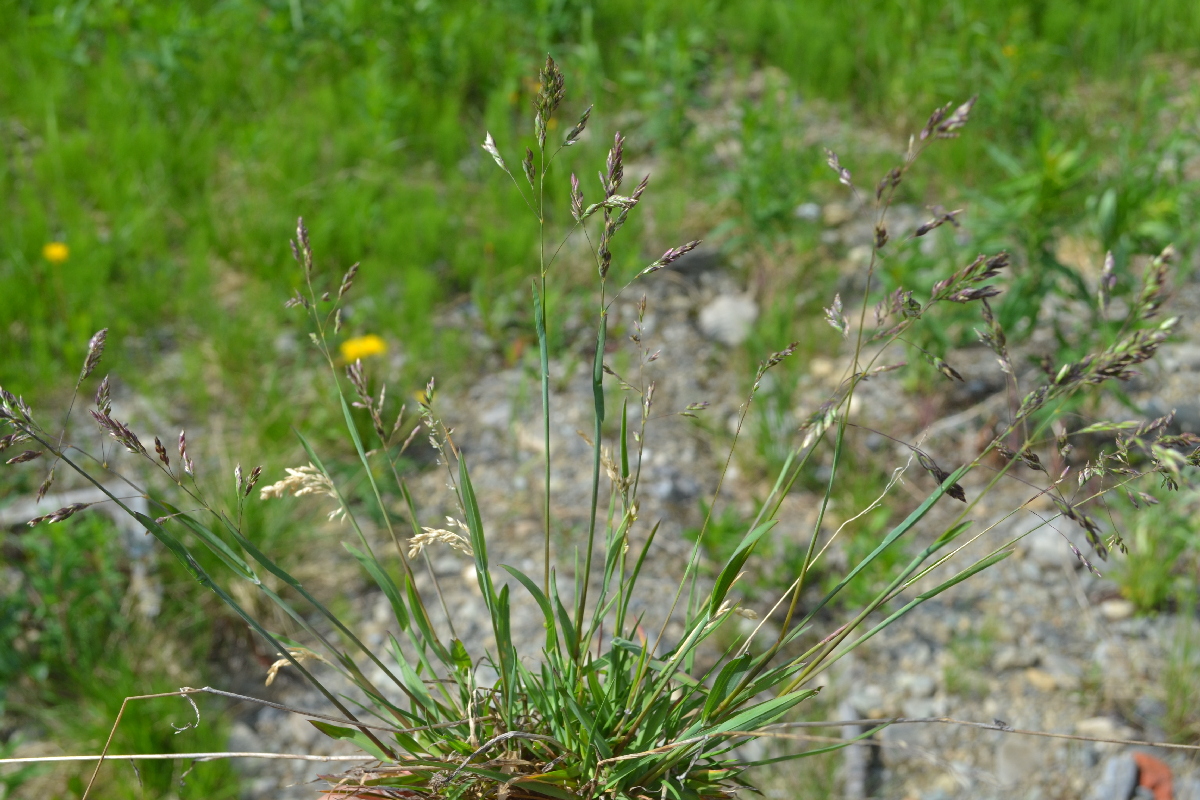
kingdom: Plantae
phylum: Tracheophyta
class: Liliopsida
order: Poales
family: Poaceae
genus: Poa
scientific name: Poa alpina
